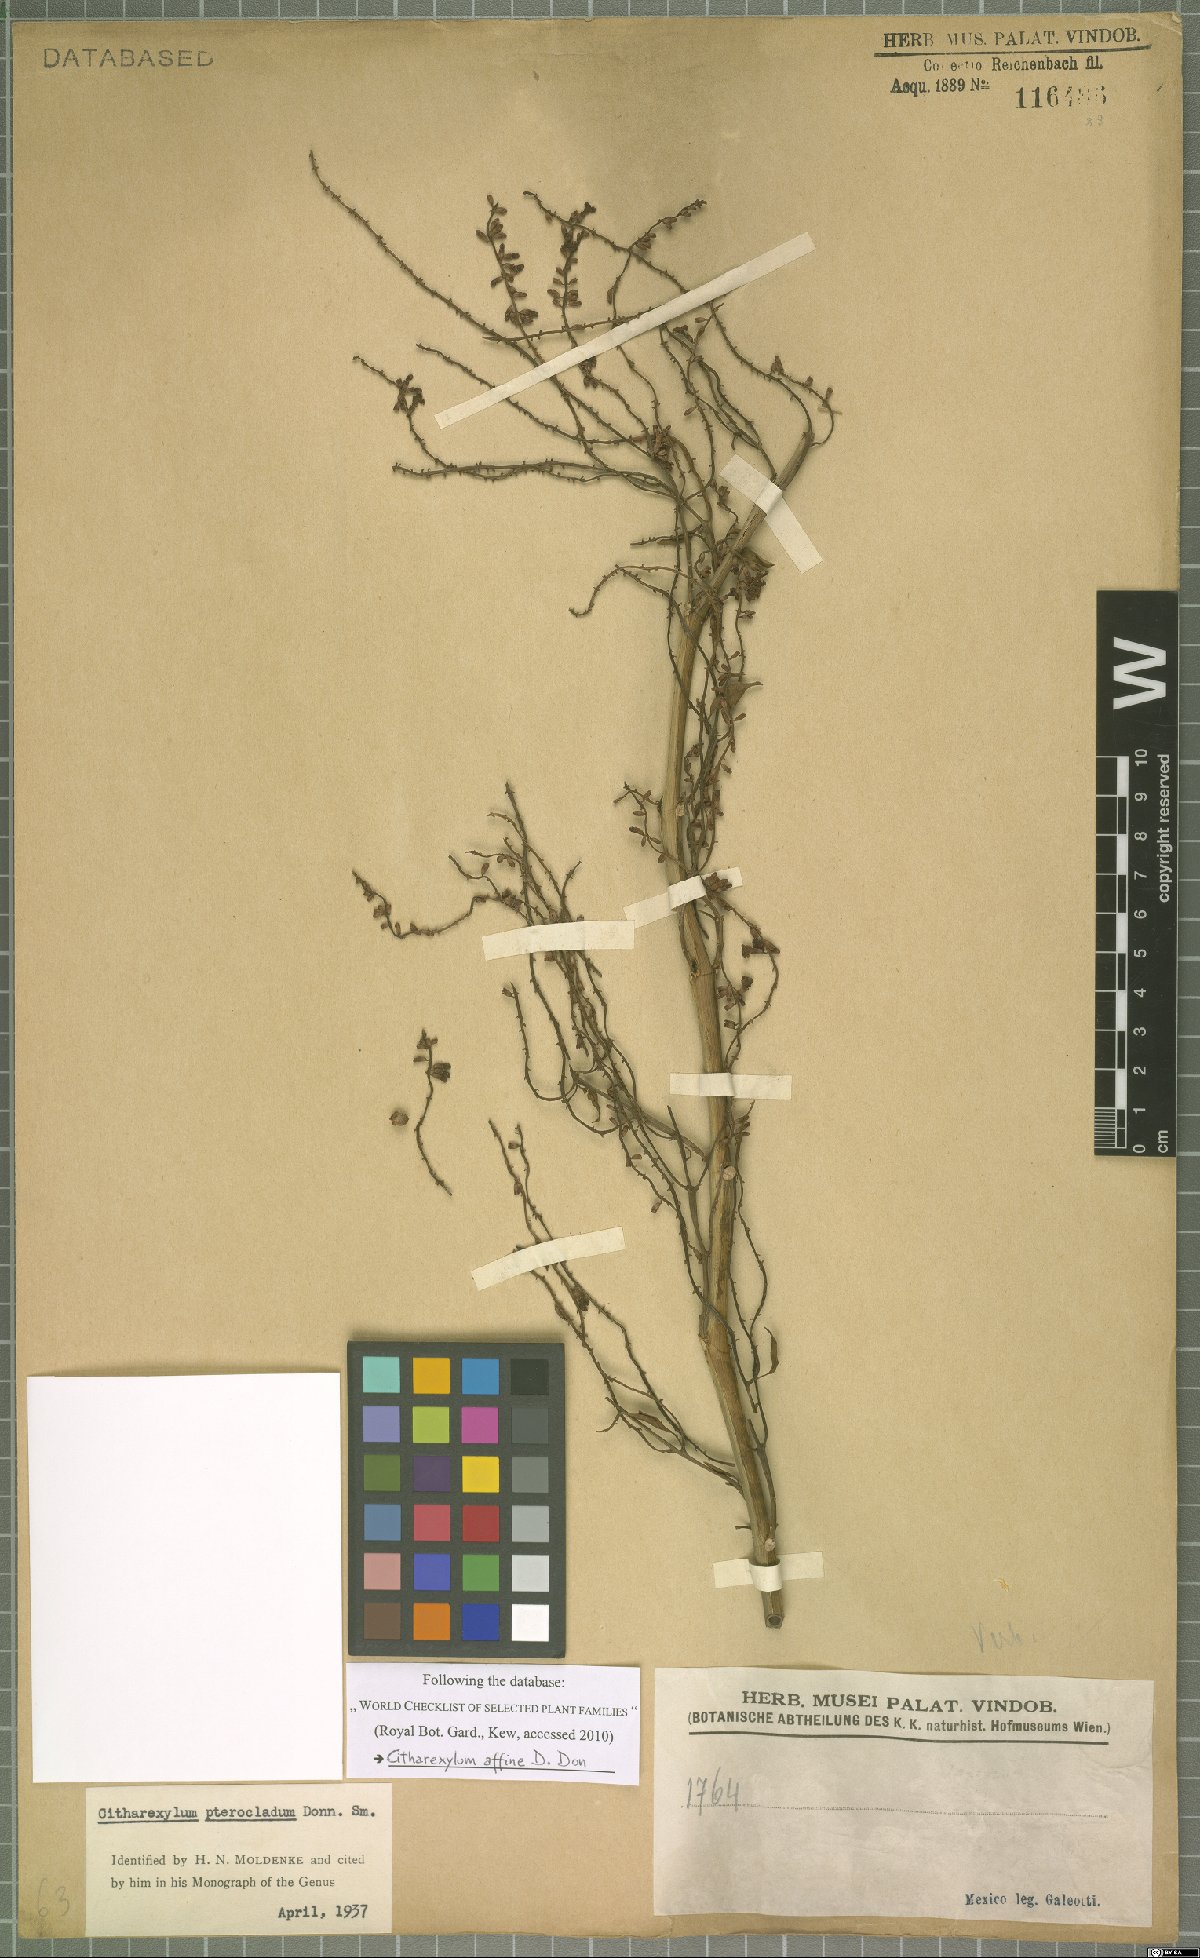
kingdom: Plantae
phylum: Tracheophyta
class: Magnoliopsida
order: Lamiales
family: Verbenaceae
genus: Citharexylum
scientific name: Citharexylum affine
